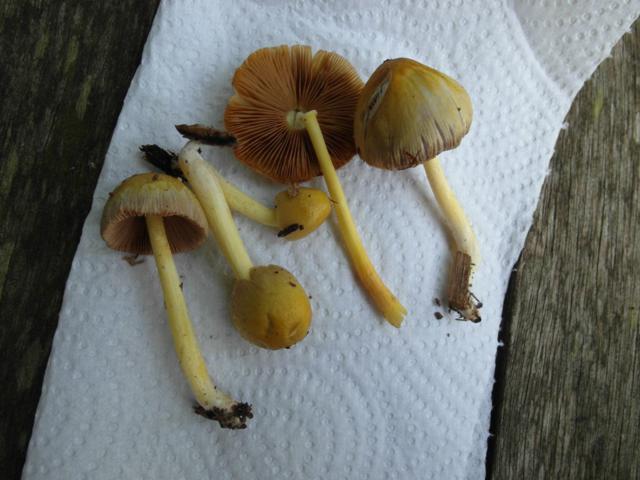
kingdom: Fungi
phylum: Basidiomycota
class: Agaricomycetes
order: Agaricales
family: Bolbitiaceae
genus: Bolbitius
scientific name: Bolbitius titubans
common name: almindelig gulhat
